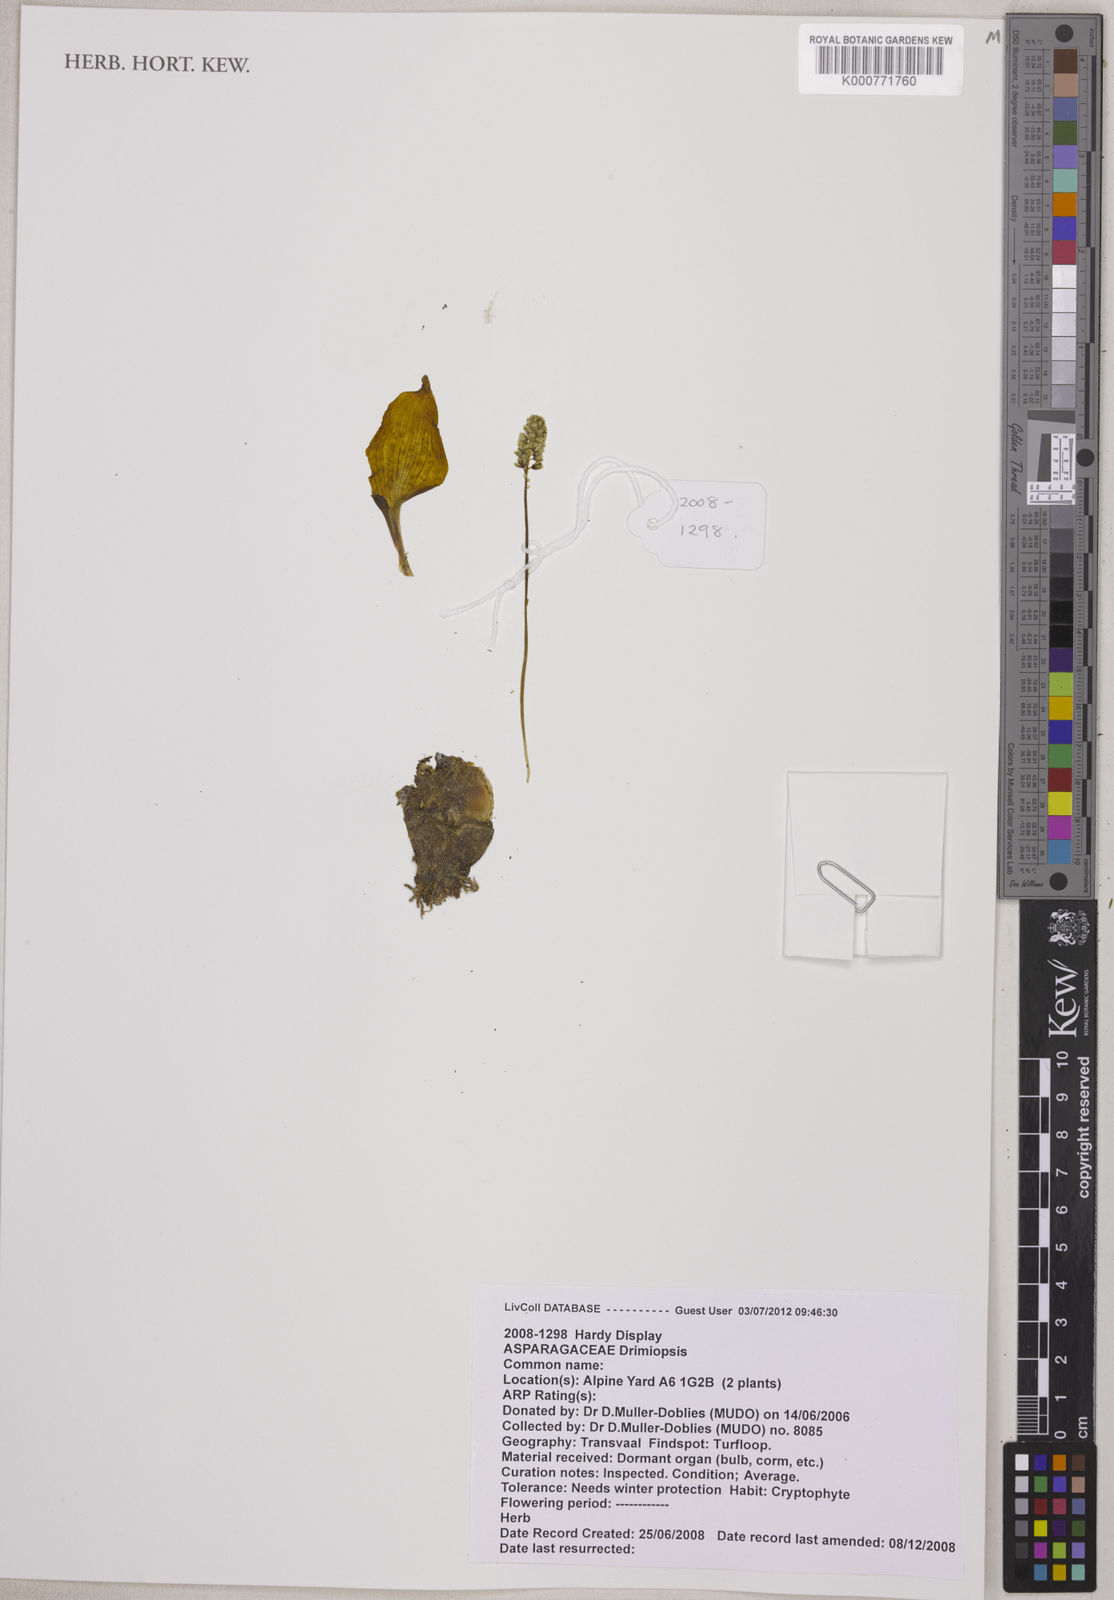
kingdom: Plantae
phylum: Tracheophyta
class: Liliopsida
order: Asparagales
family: Asparagaceae
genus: Drimiopsis
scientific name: Drimiopsis burkei
